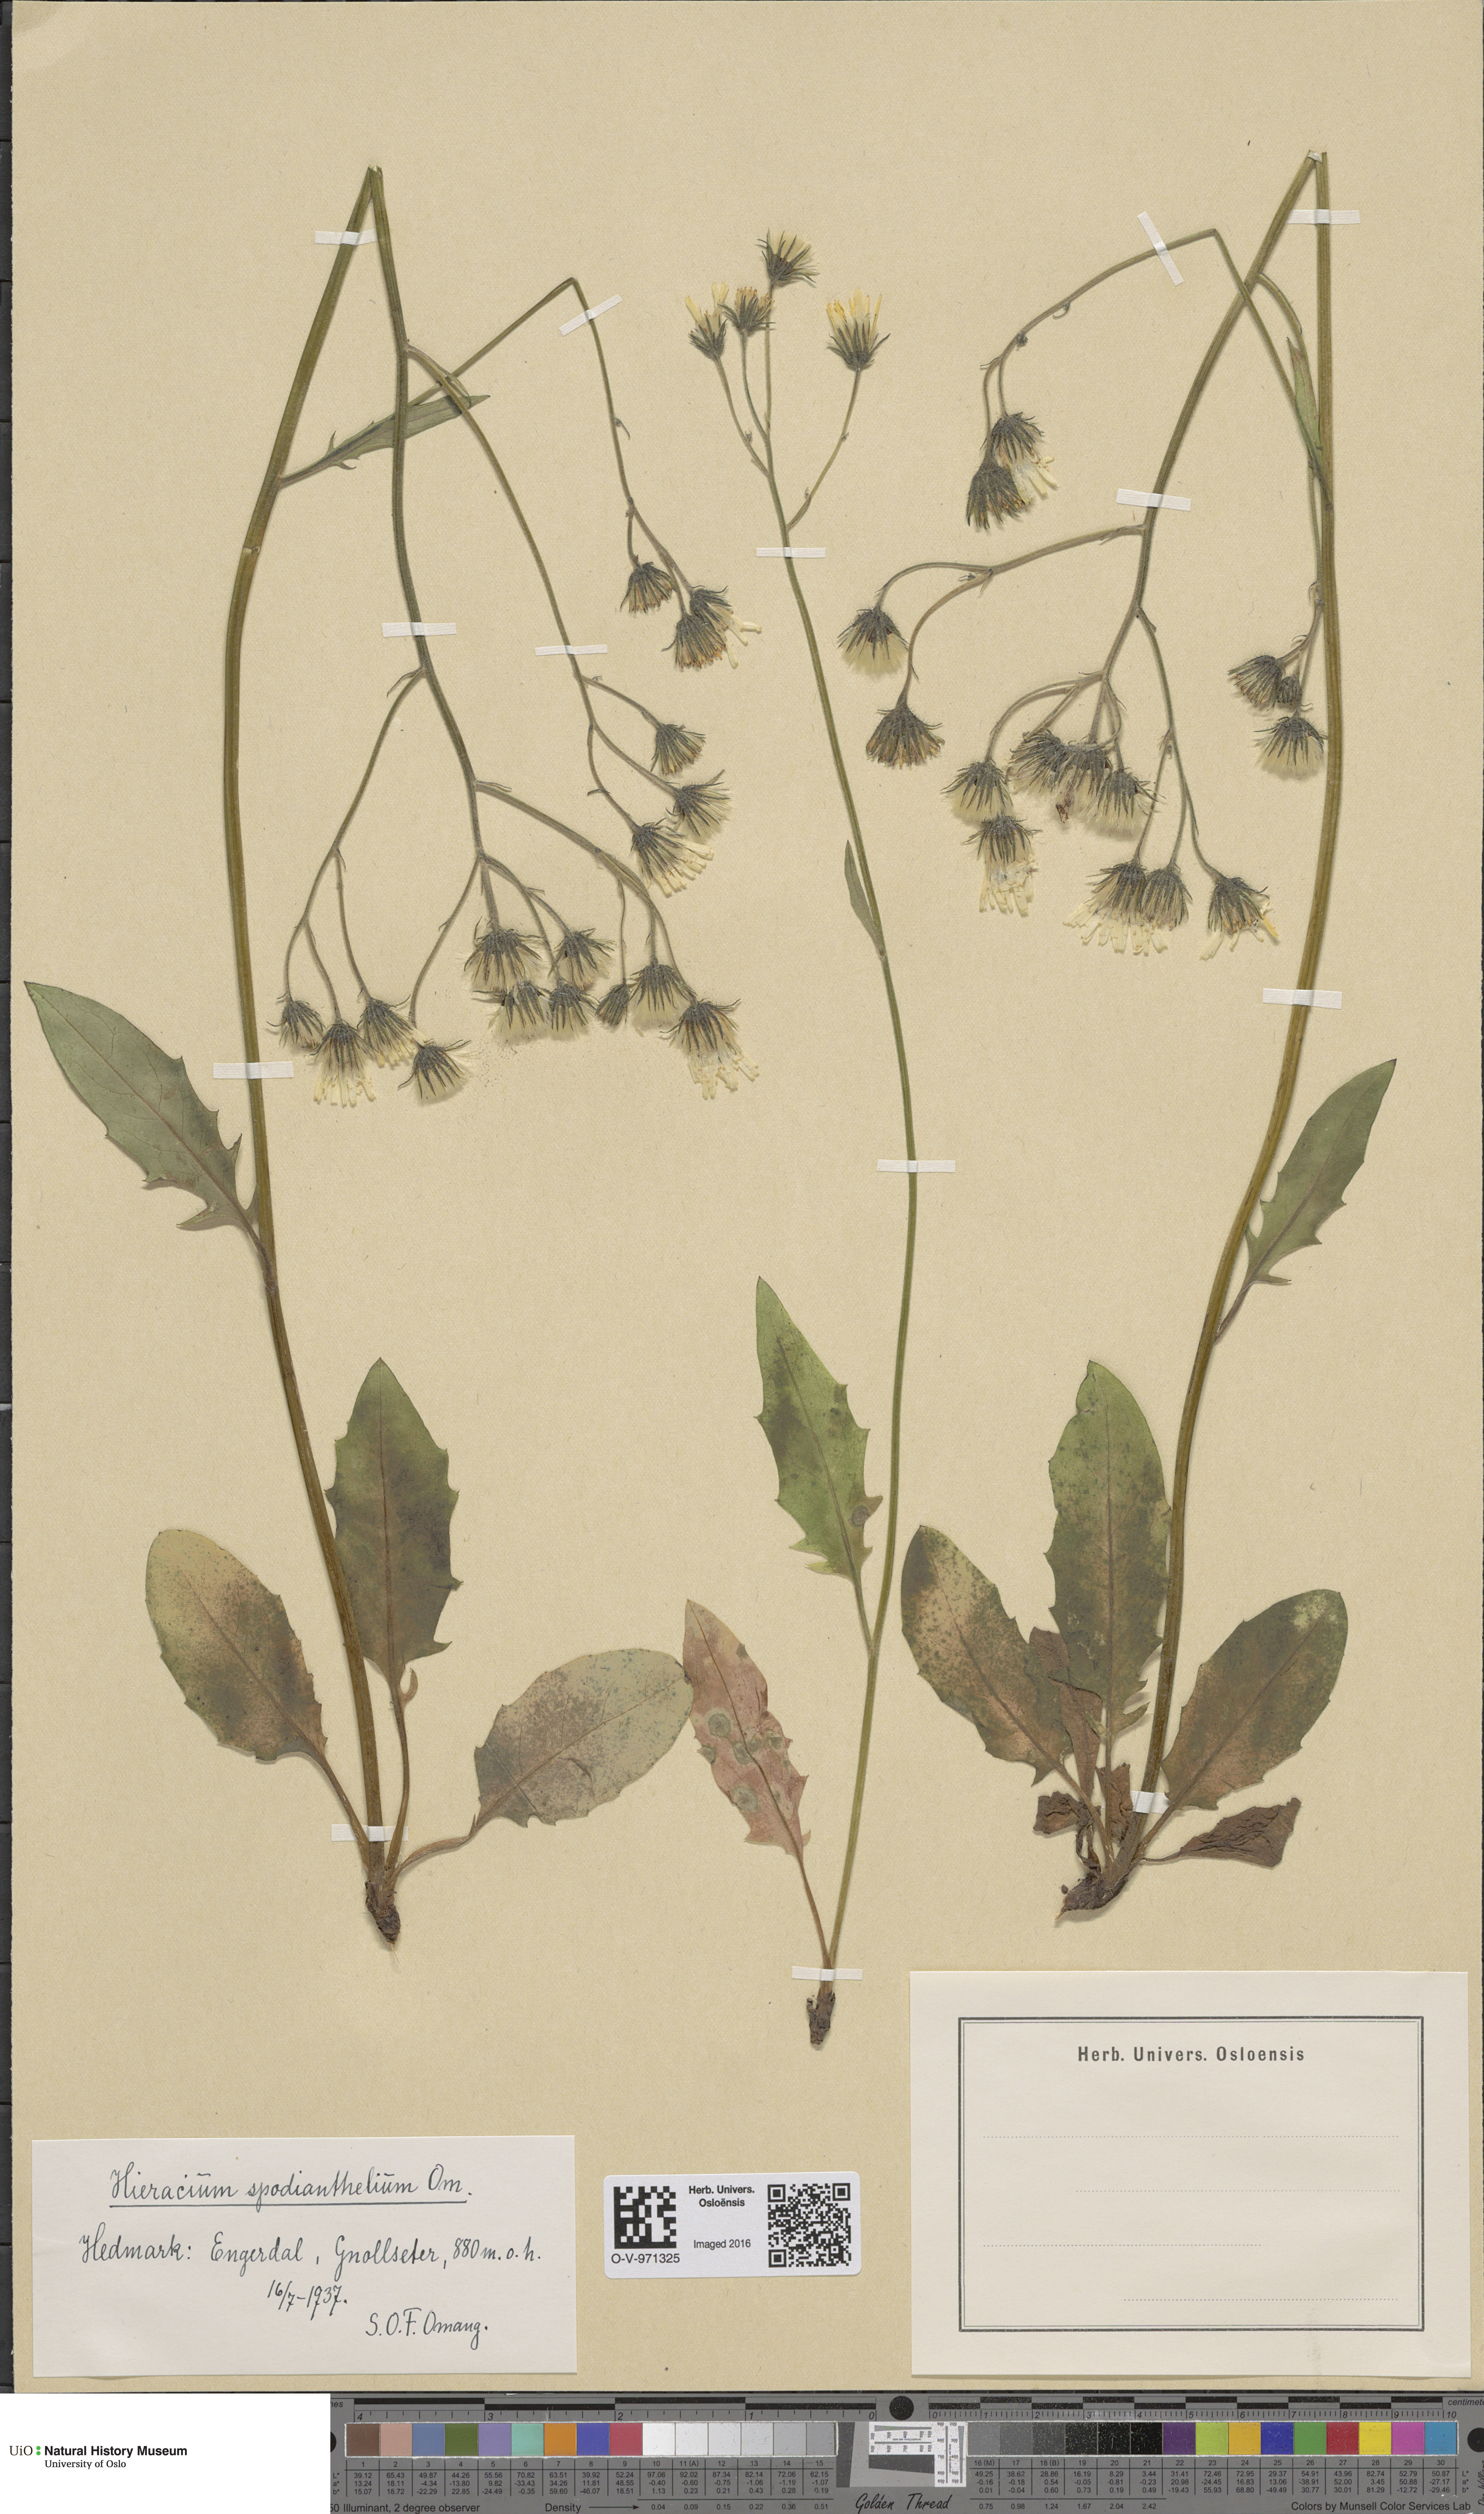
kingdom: Plantae
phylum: Tracheophyta
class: Magnoliopsida
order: Asterales
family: Asteraceae
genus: Hieracium
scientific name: Hieracium
